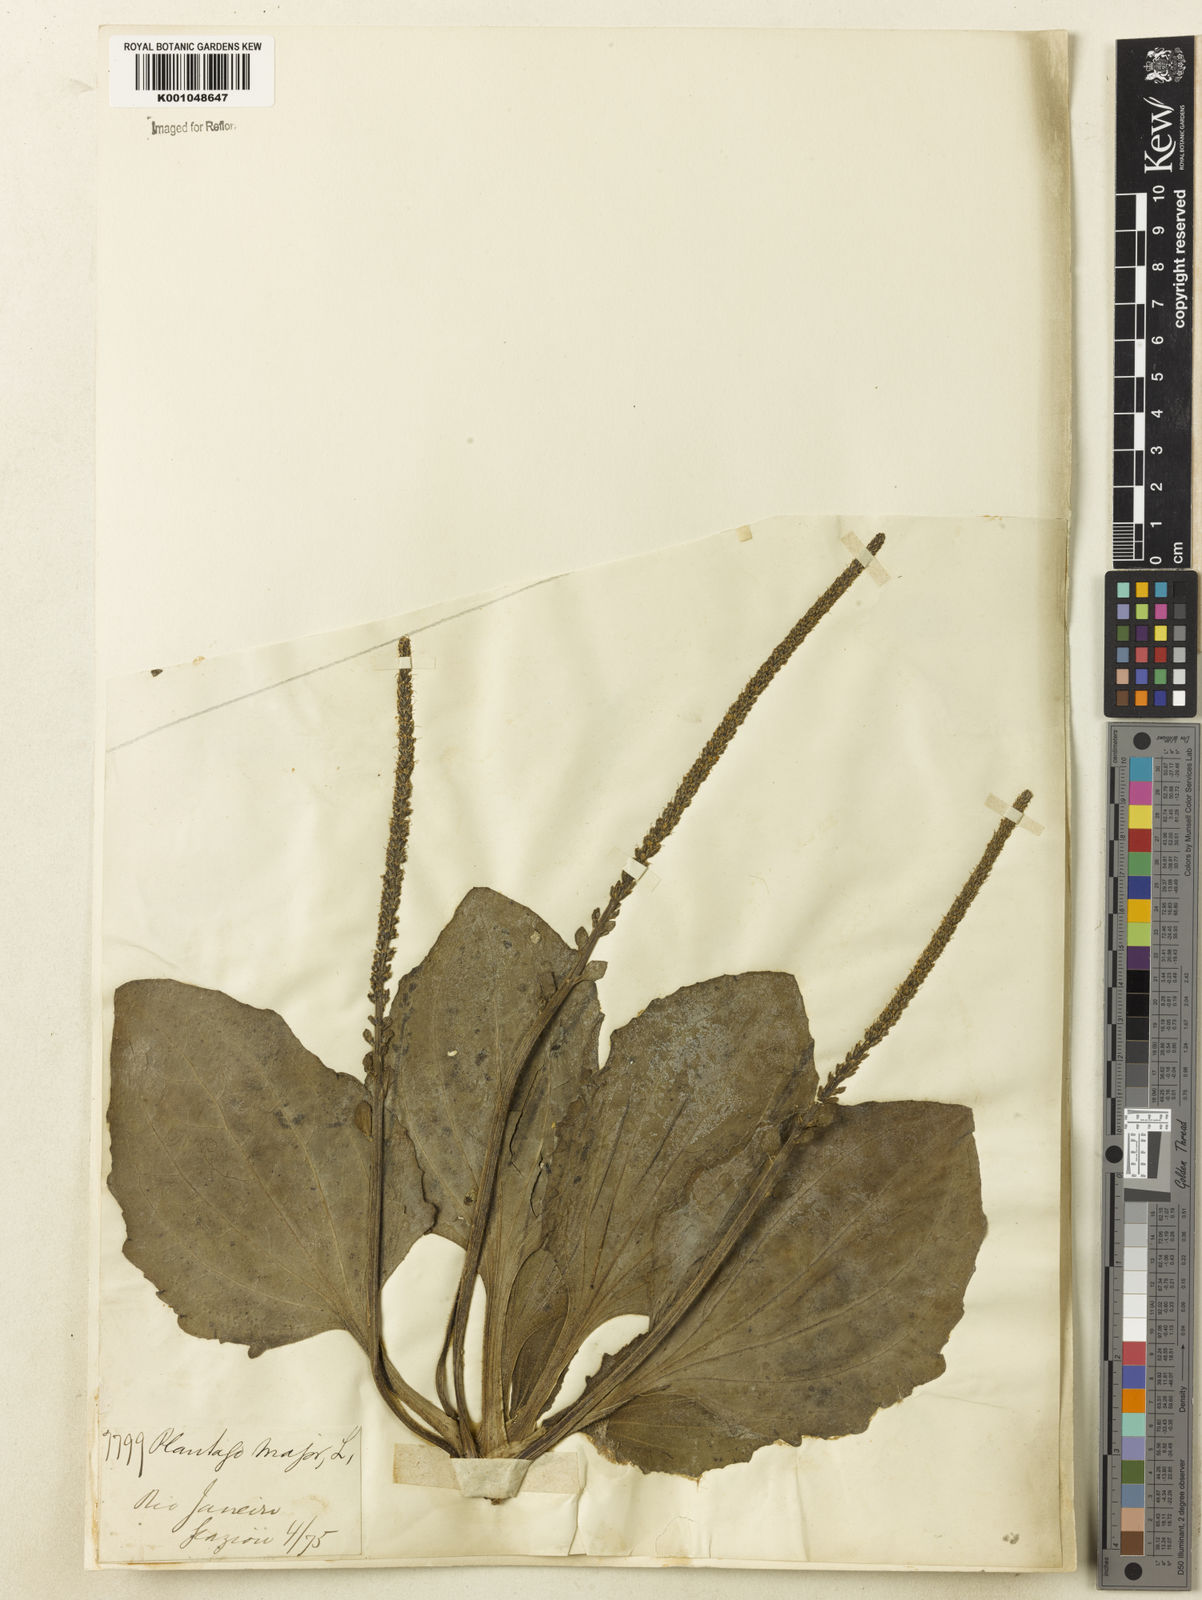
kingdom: Plantae
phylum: Tracheophyta
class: Magnoliopsida
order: Lamiales
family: Plantaginaceae
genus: Plantago
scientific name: Plantago major
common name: Common plantain
